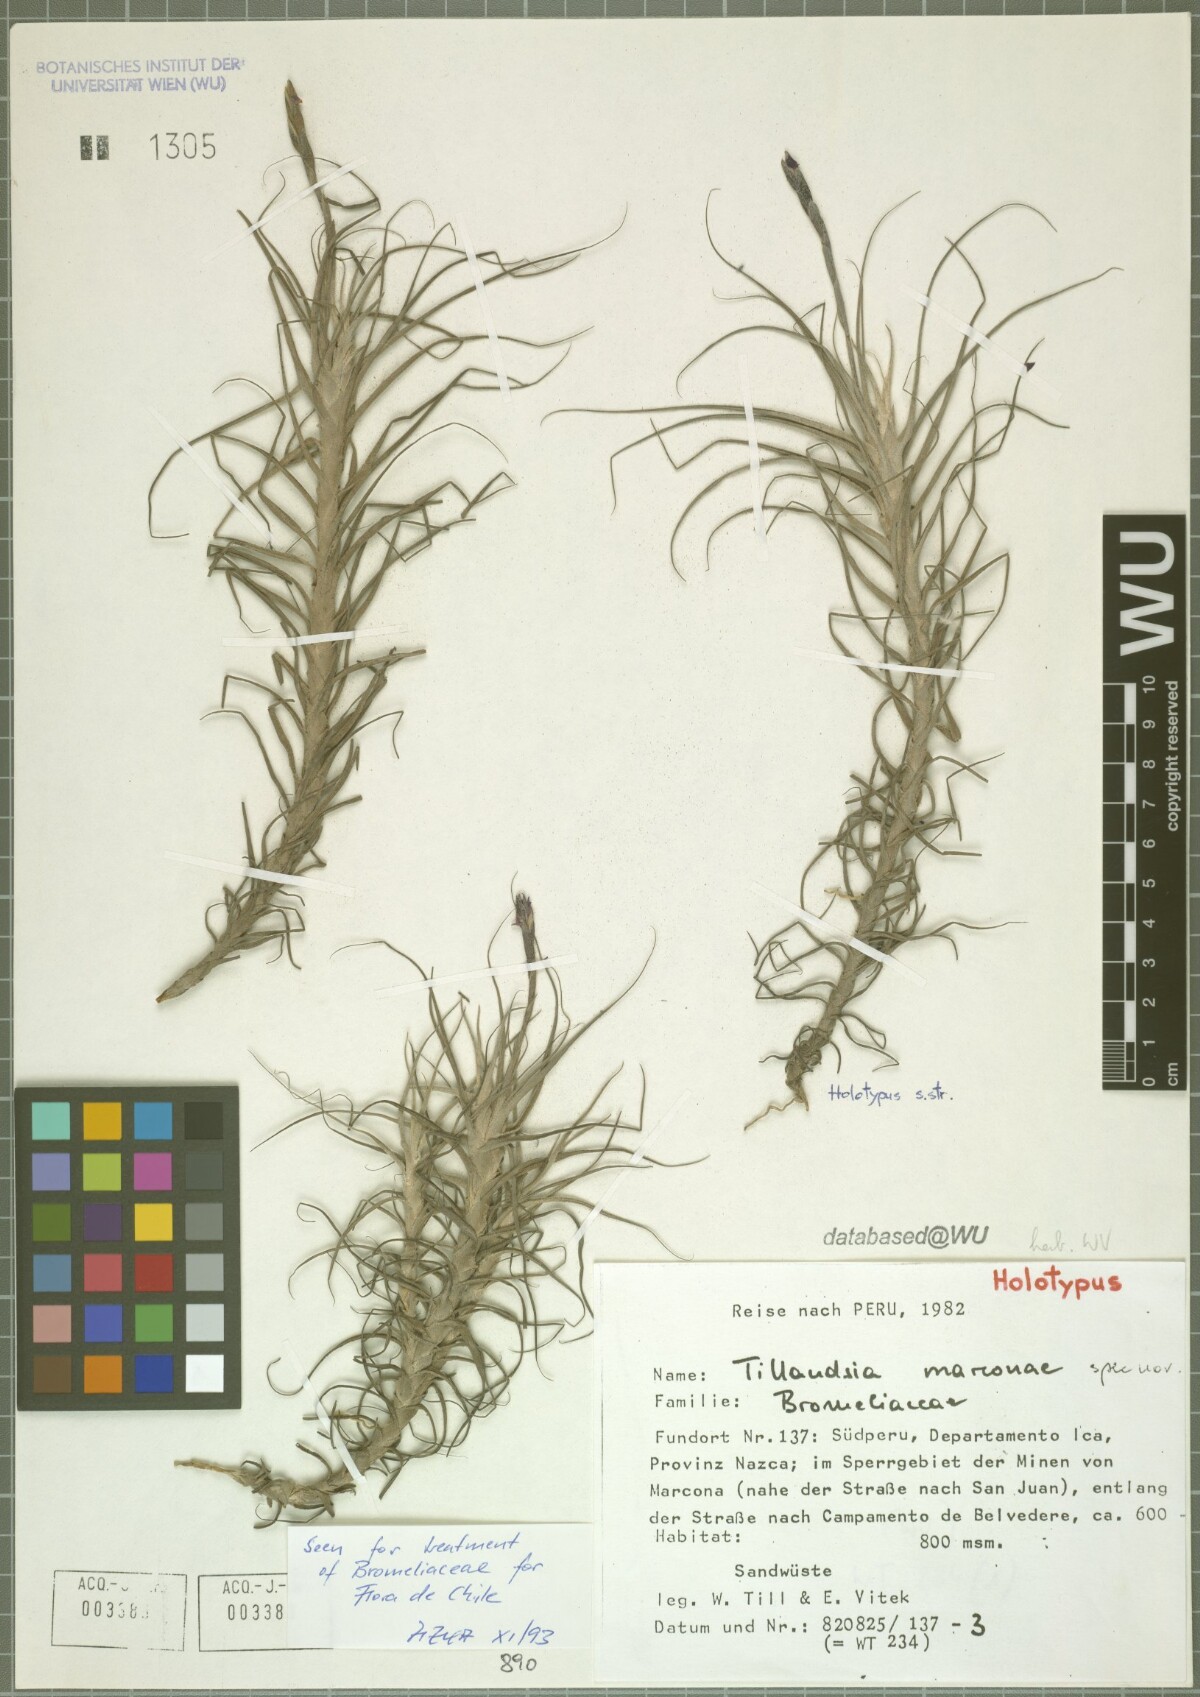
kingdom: Plantae
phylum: Tracheophyta
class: Liliopsida
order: Poales
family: Bromeliaceae
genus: Tillandsia
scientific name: Tillandsia marconae
